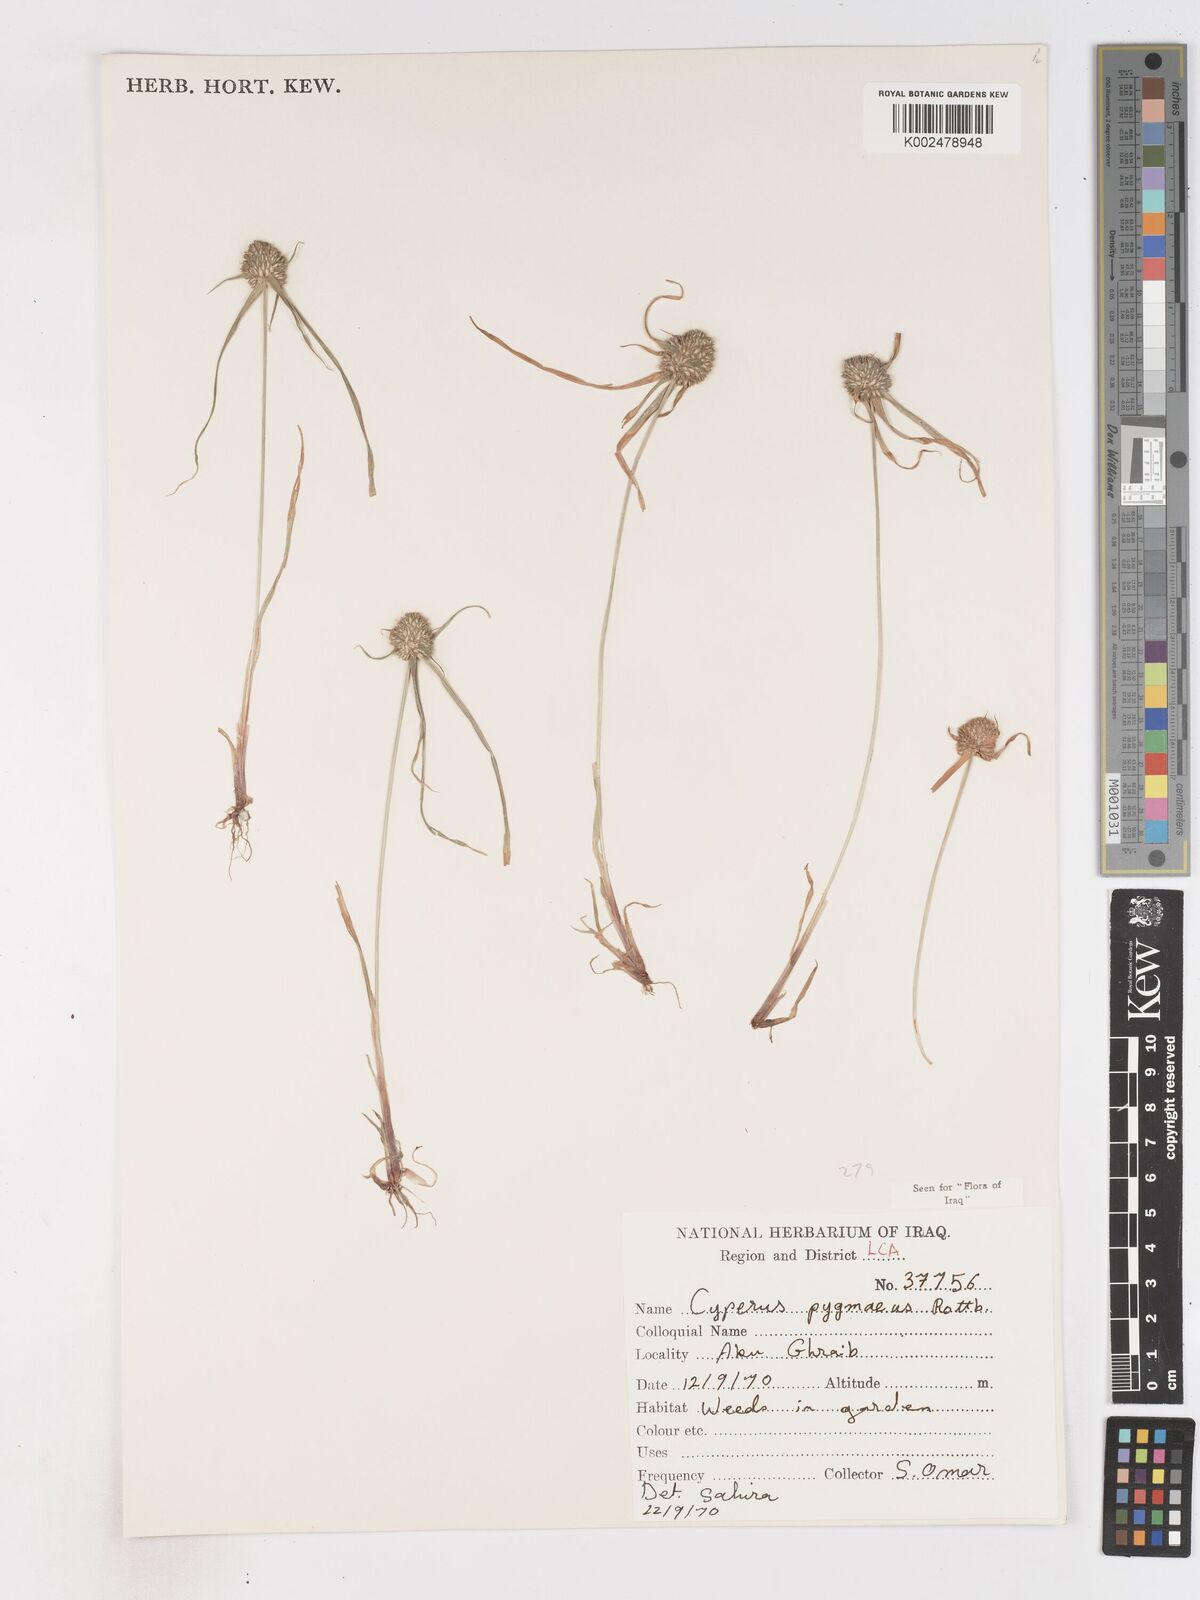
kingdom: Plantae
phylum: Tracheophyta
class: Liliopsida
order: Poales
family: Cyperaceae
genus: Cyperus
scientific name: Cyperus michelianus
